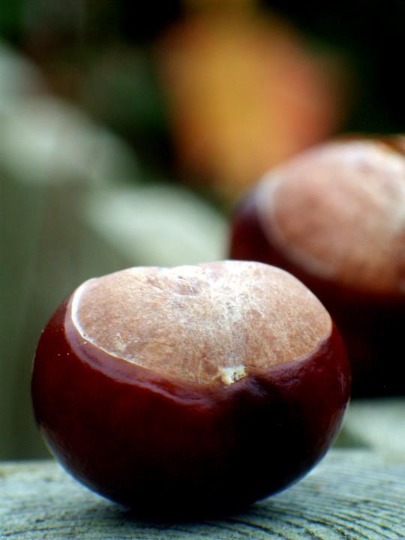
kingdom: Plantae
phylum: Tracheophyta
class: Magnoliopsida
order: Sapindales
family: Sapindaceae
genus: Aesculus
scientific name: Aesculus hippocastanum
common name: Hestekastanie
